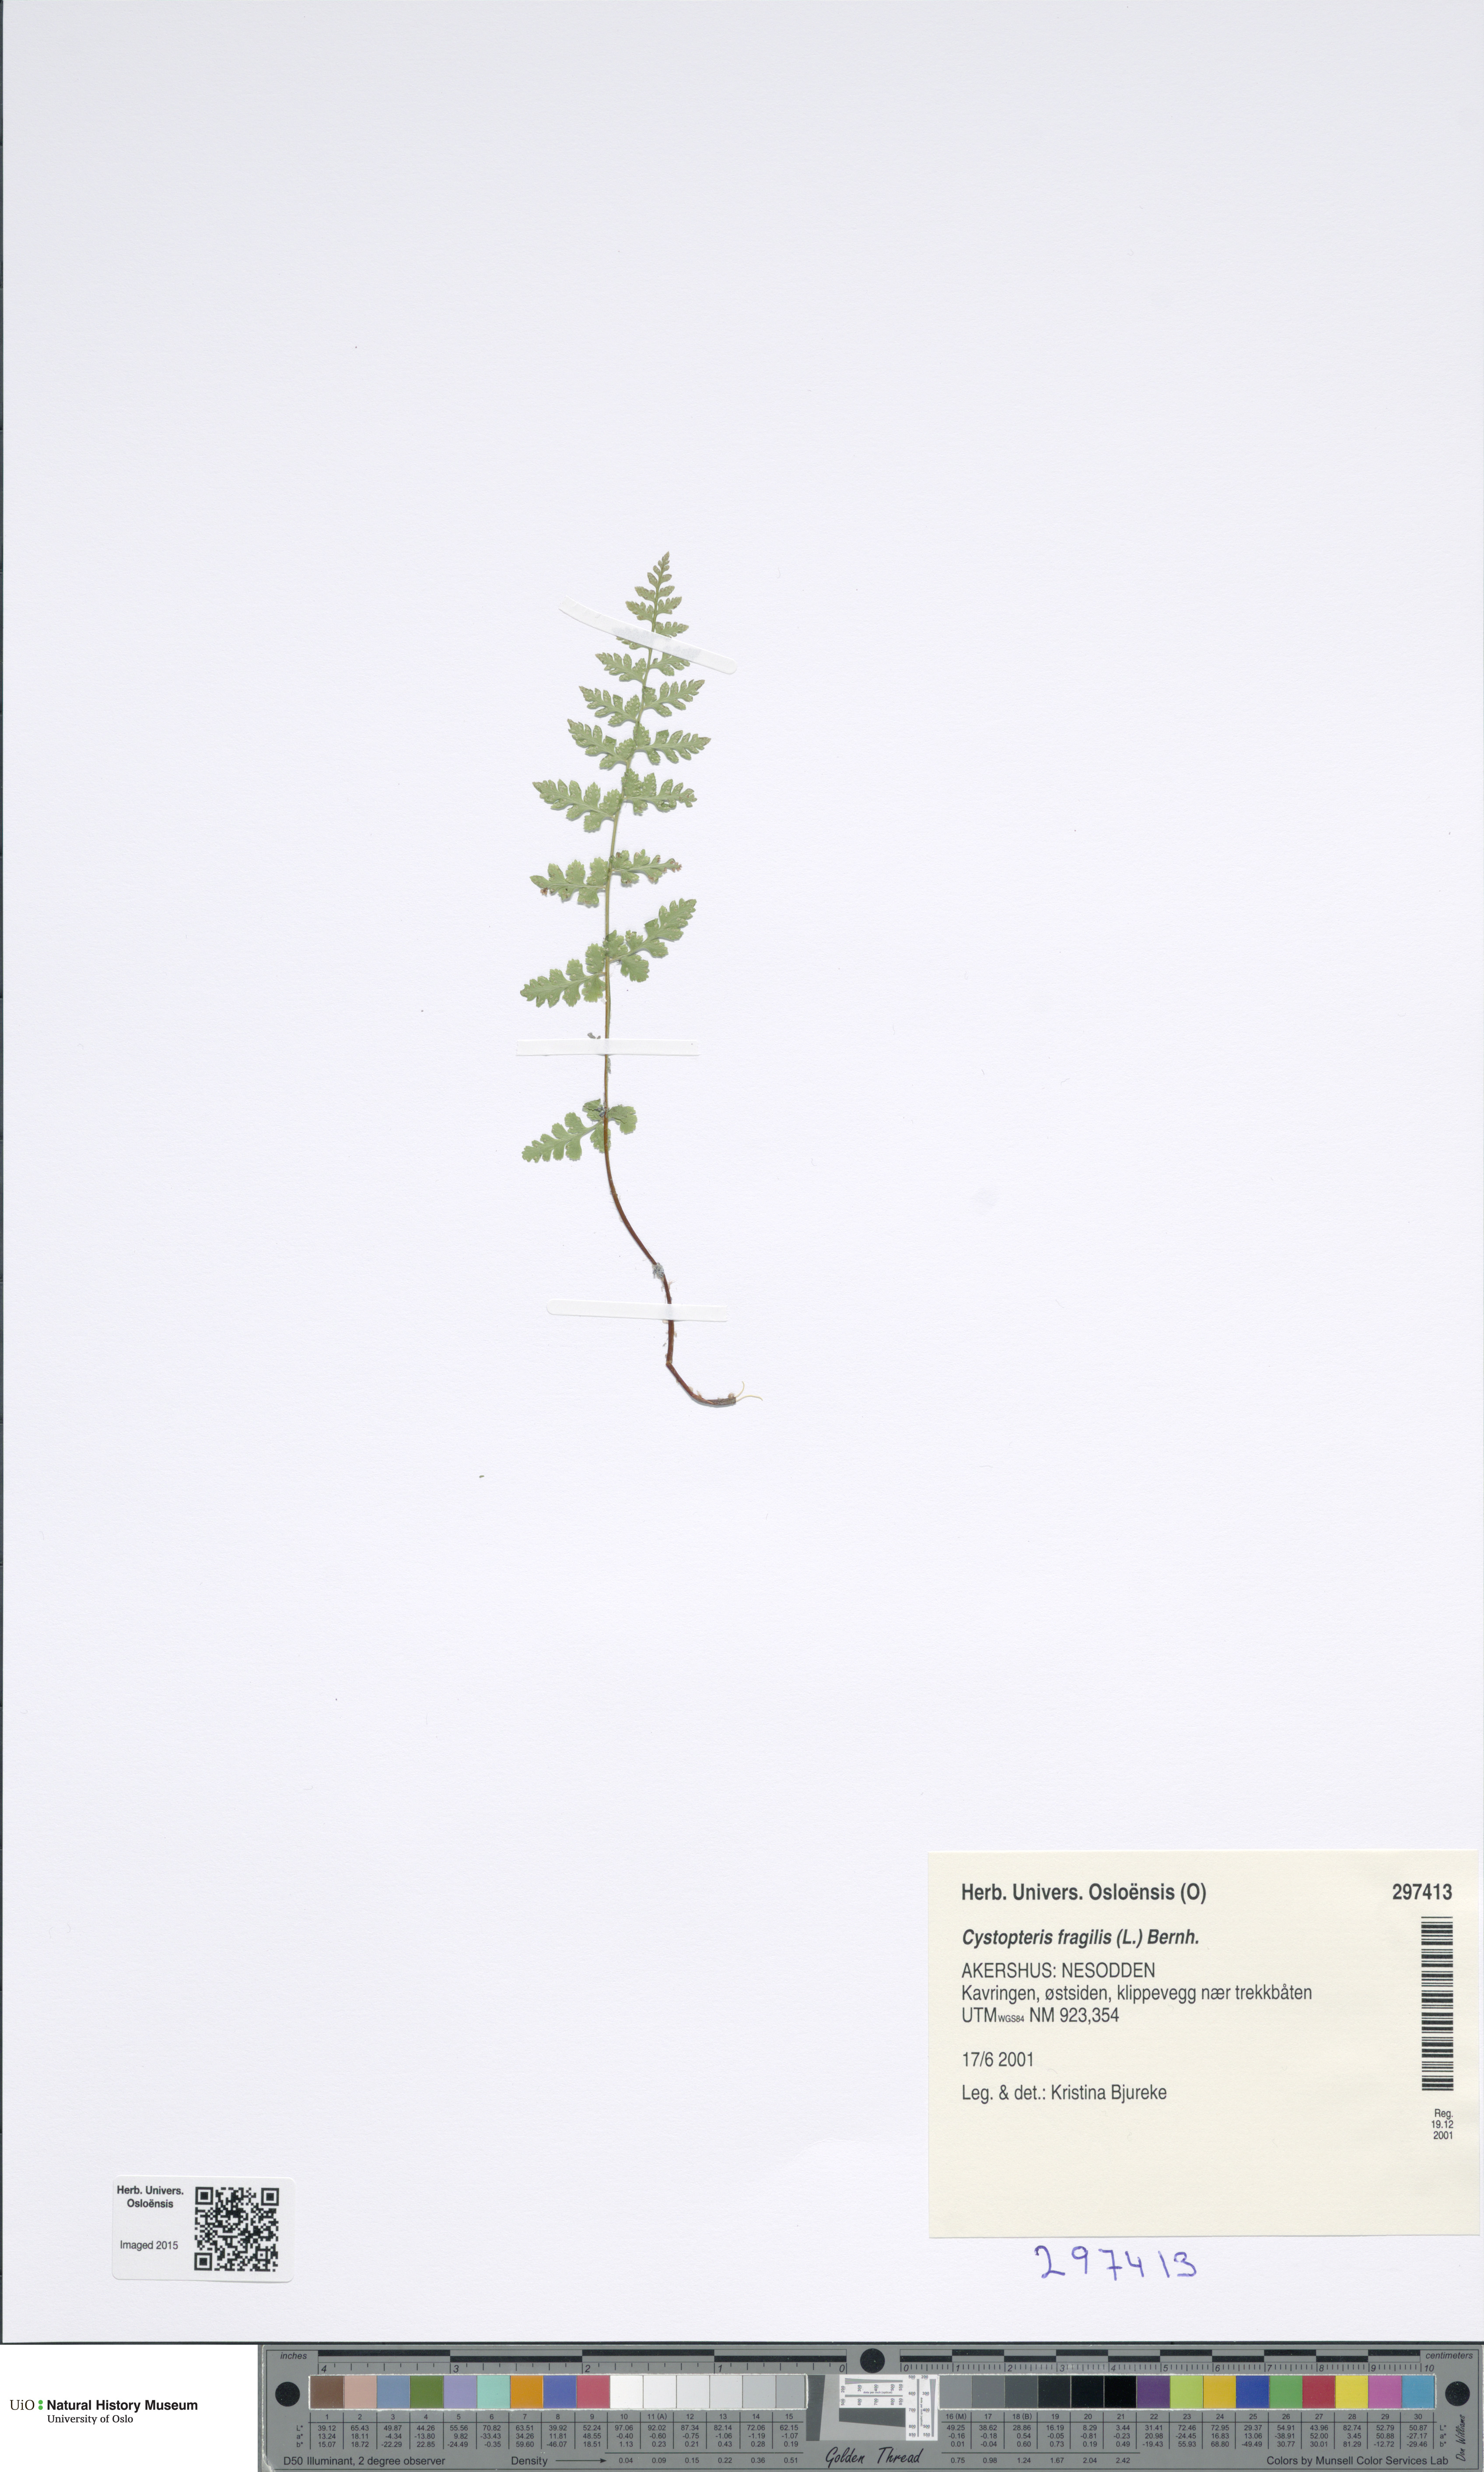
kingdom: Plantae
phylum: Tracheophyta
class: Polypodiopsida
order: Polypodiales
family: Cystopteridaceae
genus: Cystopteris
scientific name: Cystopteris fragilis
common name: Brittle bladder fern
